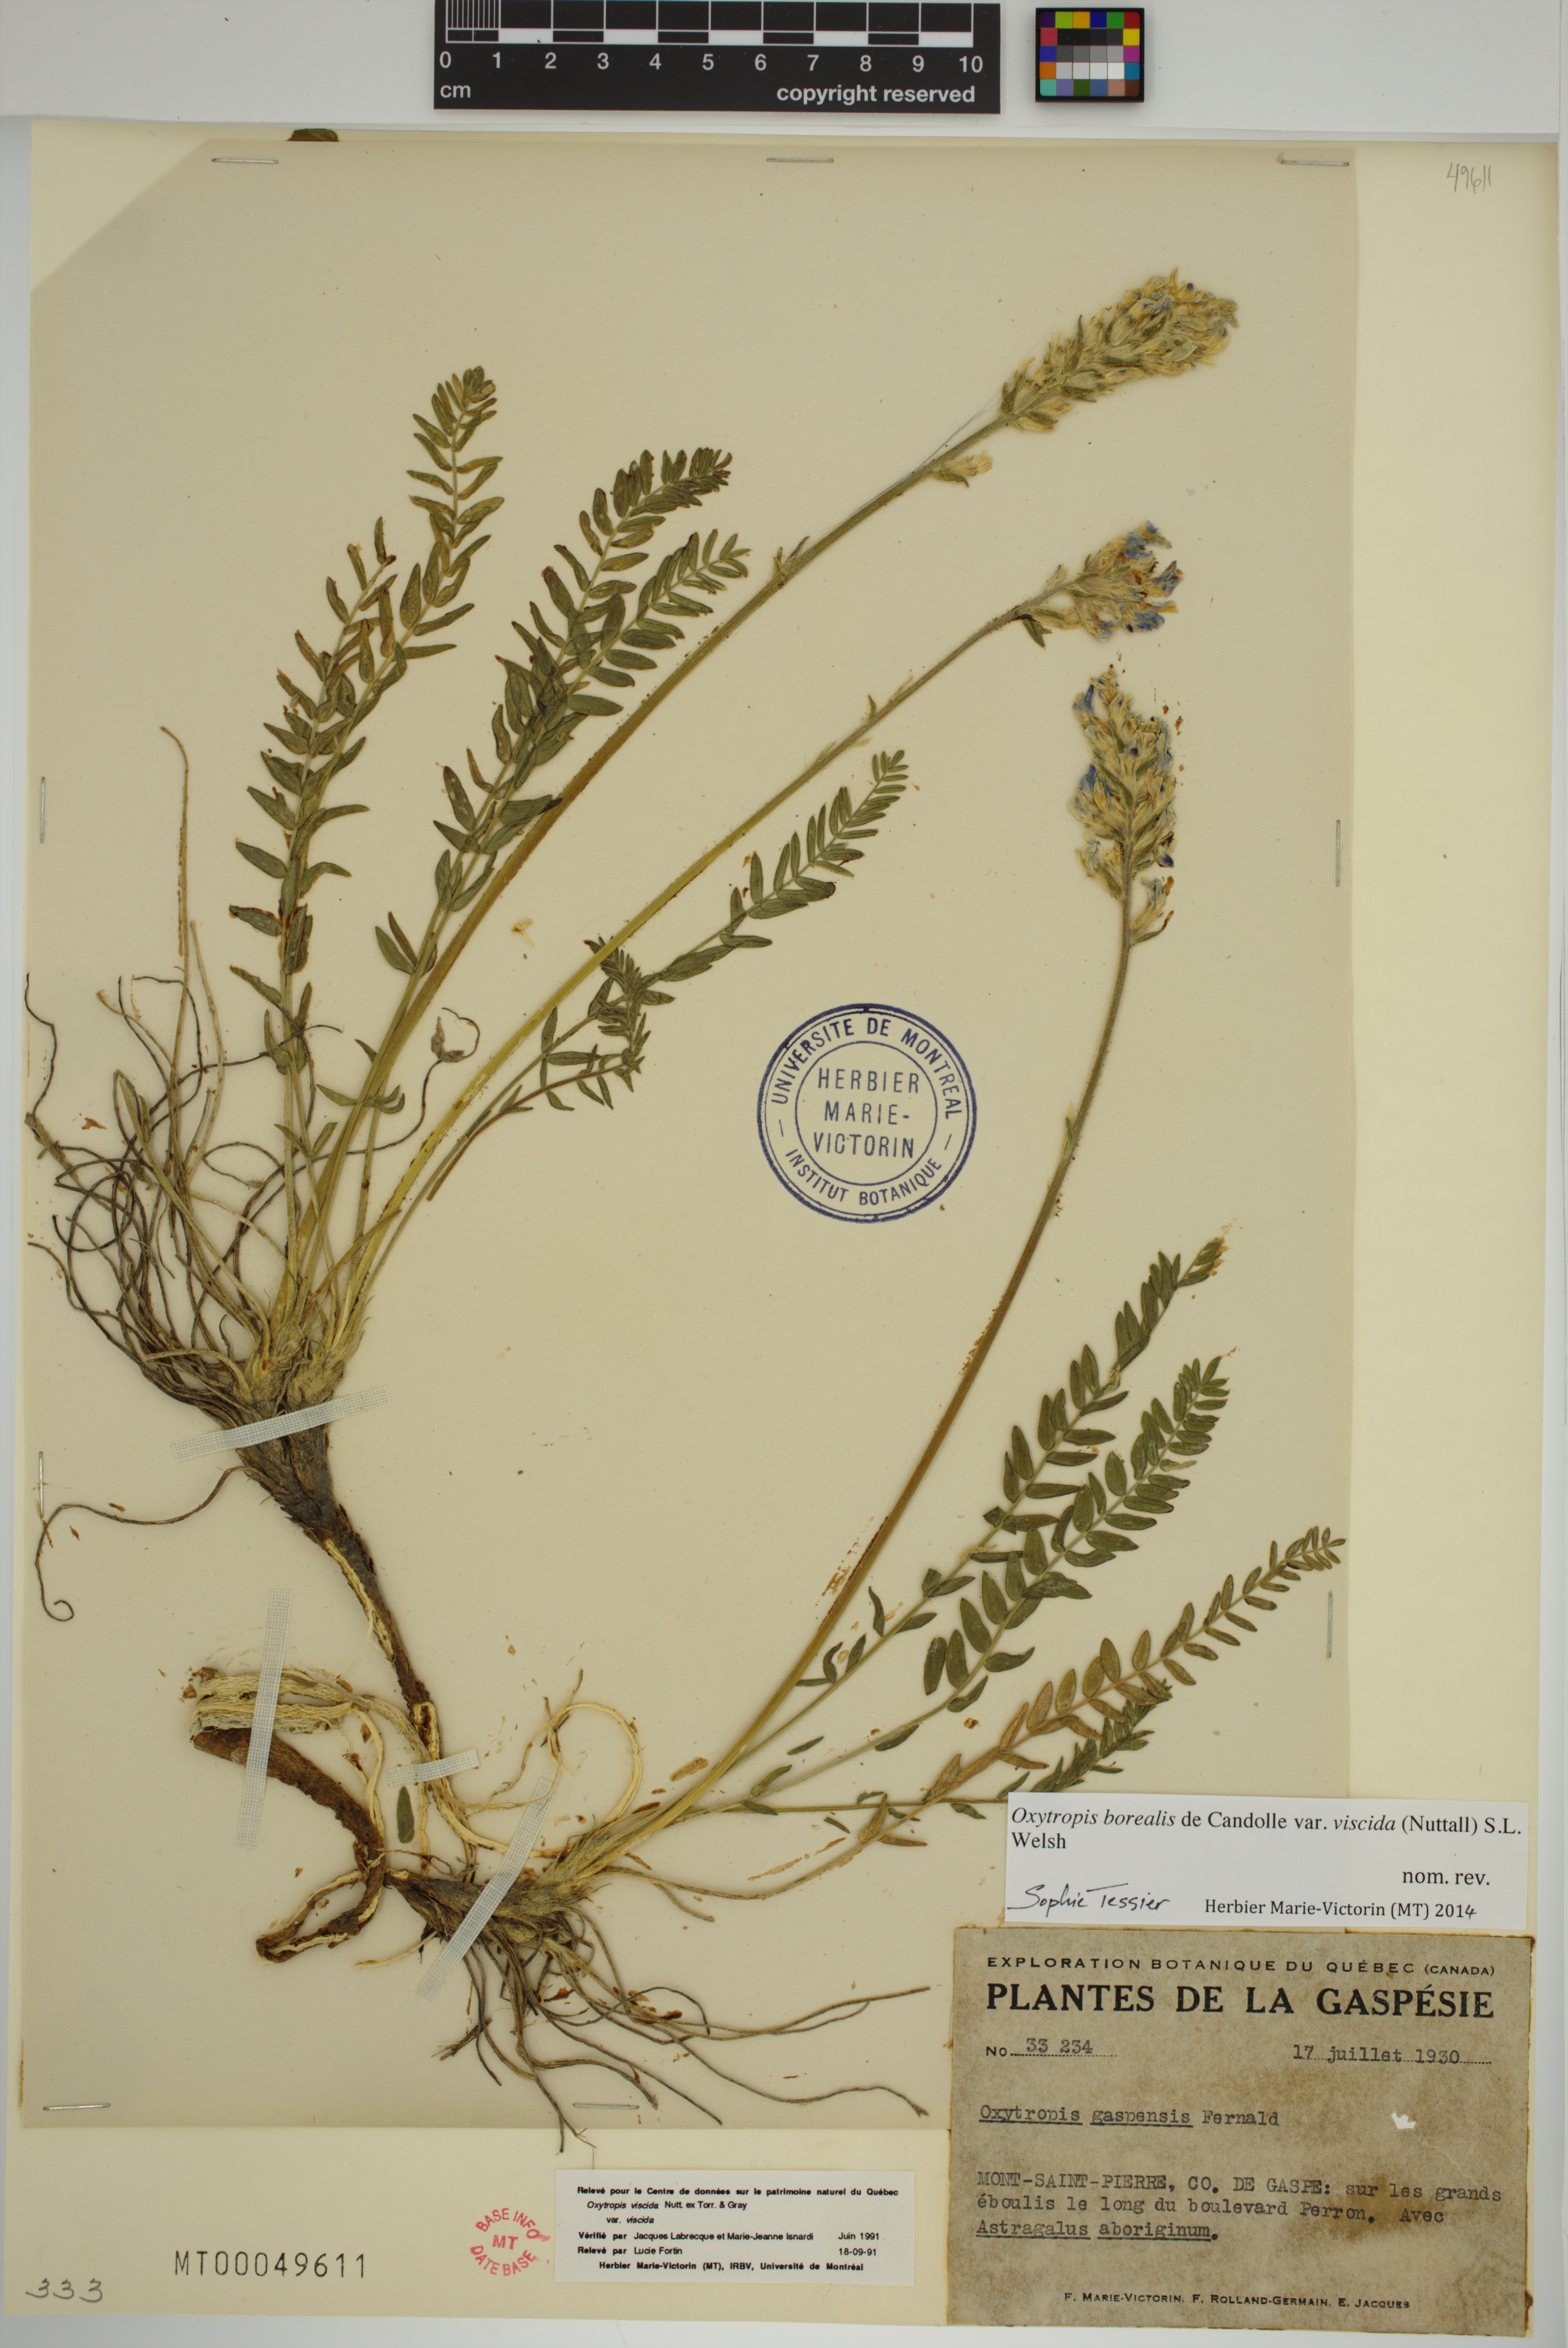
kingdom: Plantae
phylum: Tracheophyta
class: Magnoliopsida
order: Fabales
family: Fabaceae
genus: Oxytropis
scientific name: Oxytropis borealis
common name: Boreal locoweed
